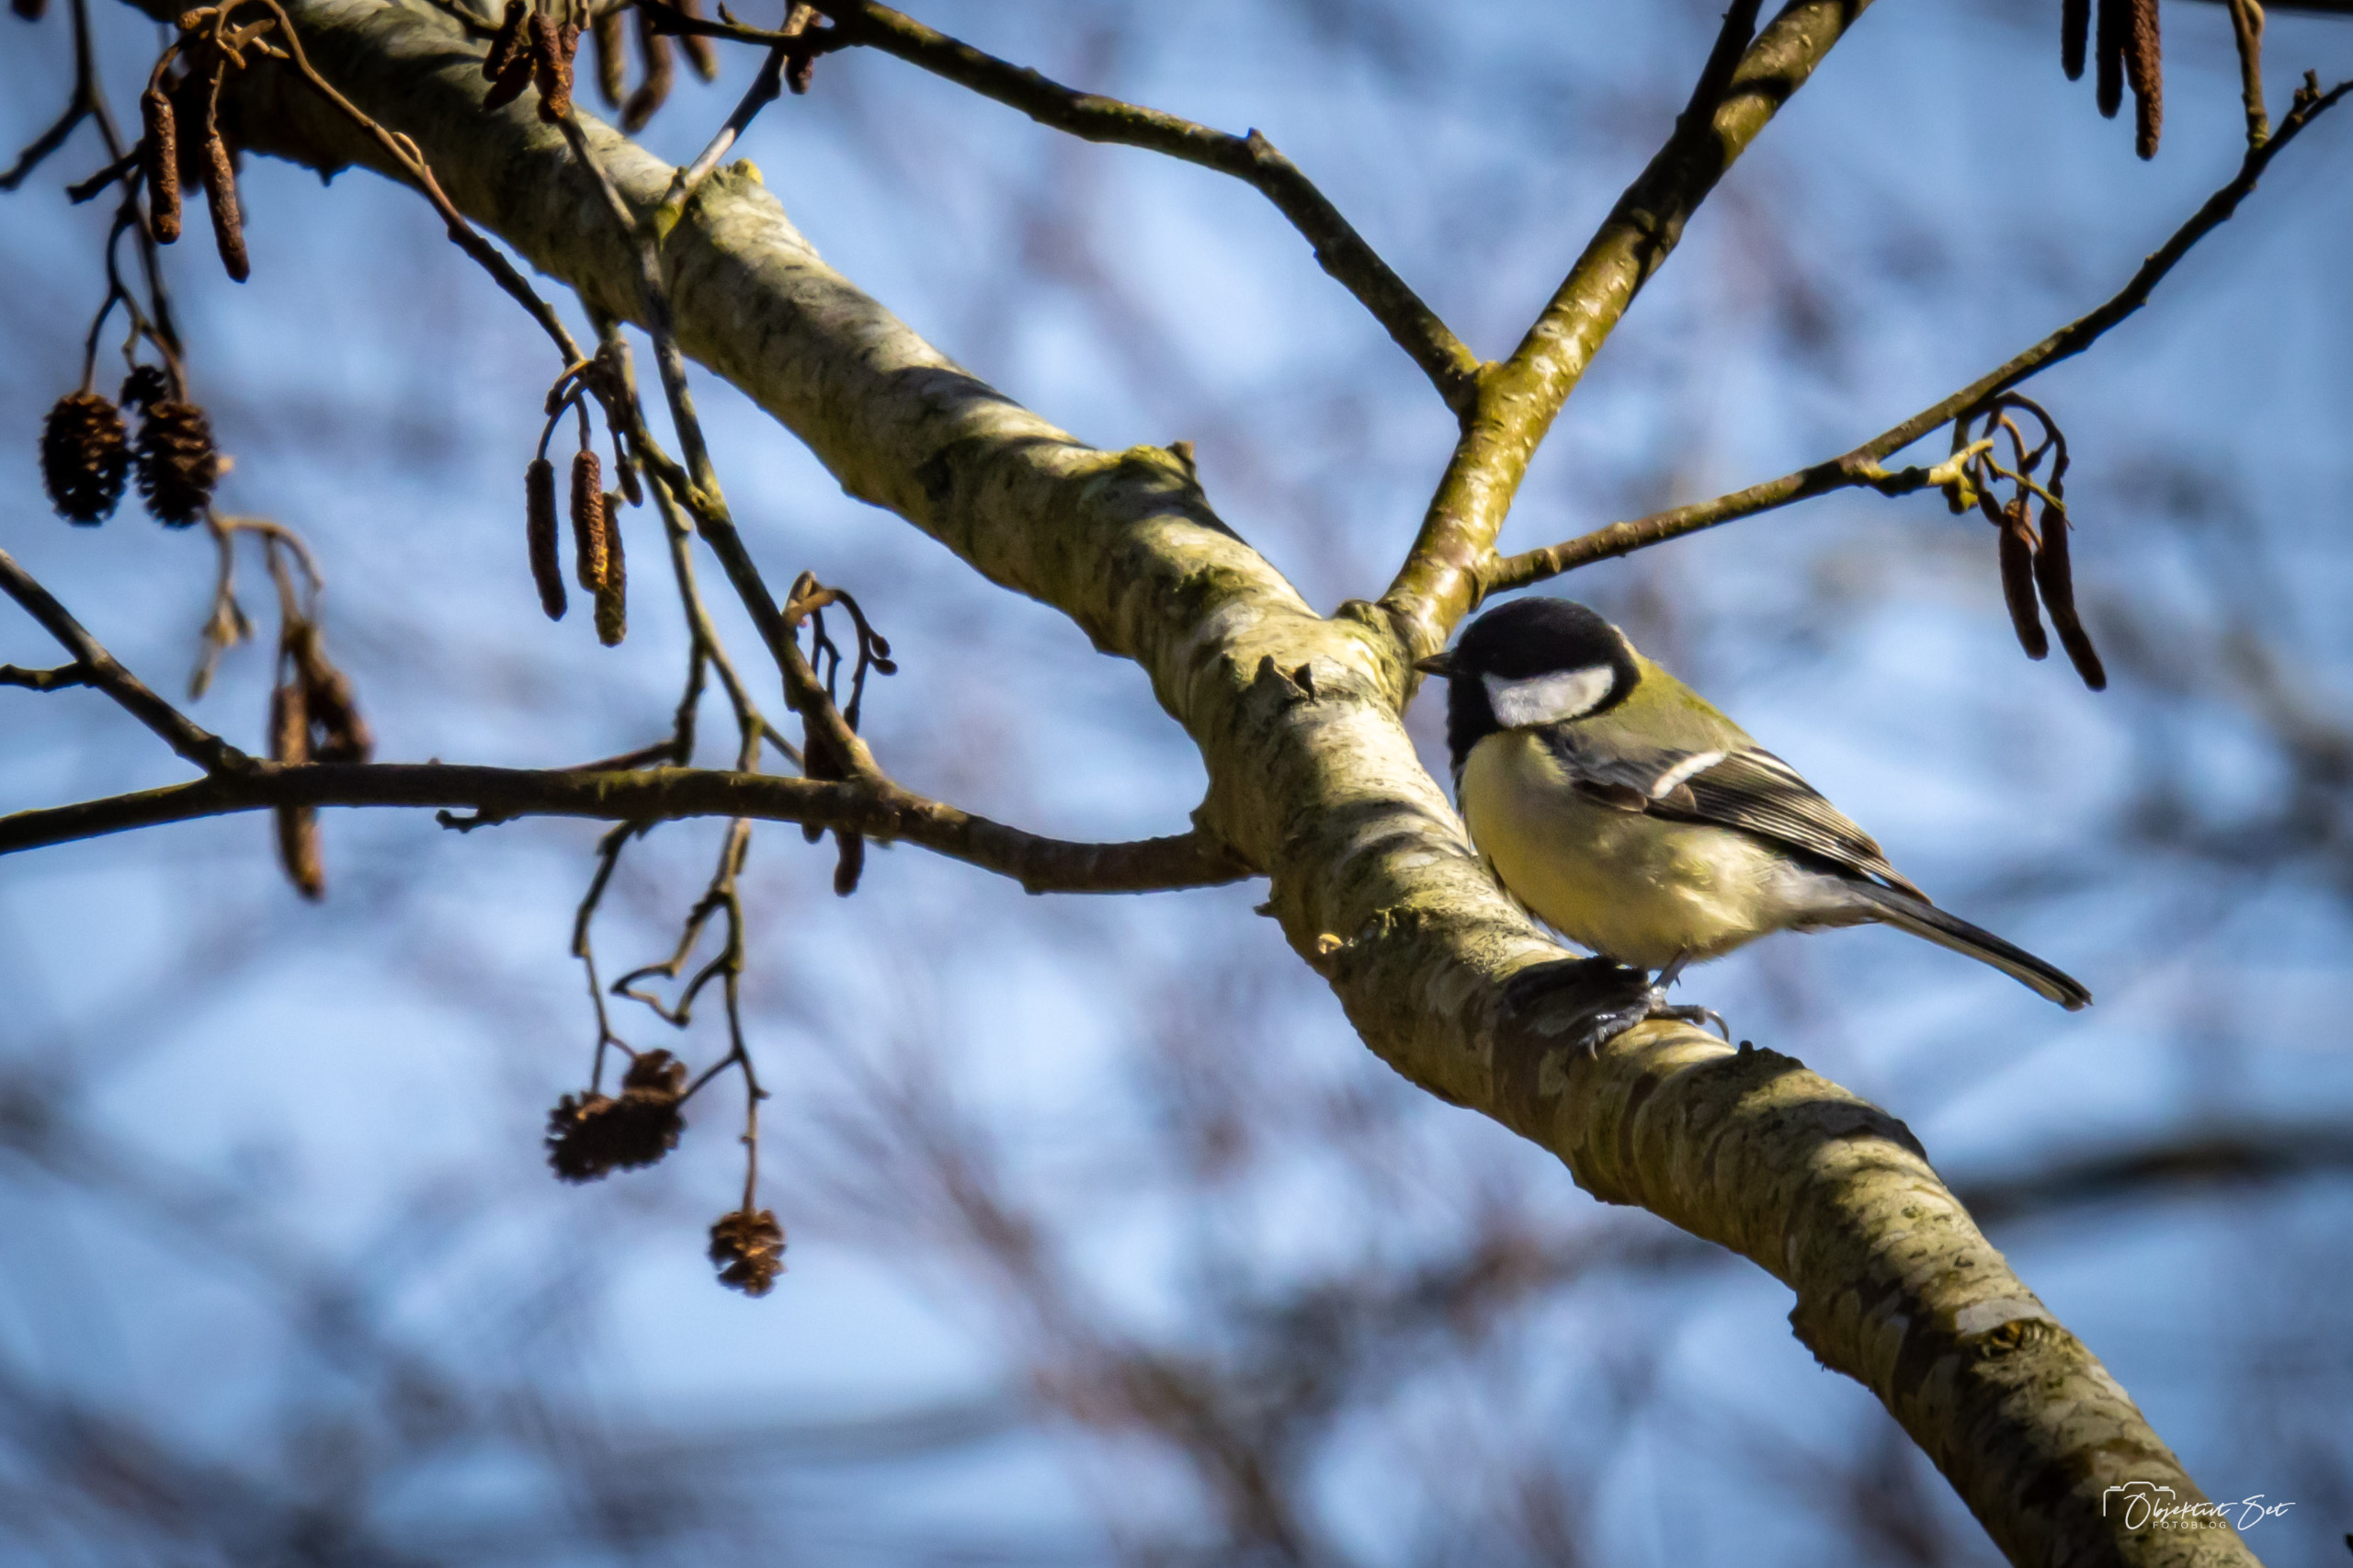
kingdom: Animalia
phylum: Chordata
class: Aves
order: Passeriformes
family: Paridae
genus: Parus
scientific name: Parus major
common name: Musvit
